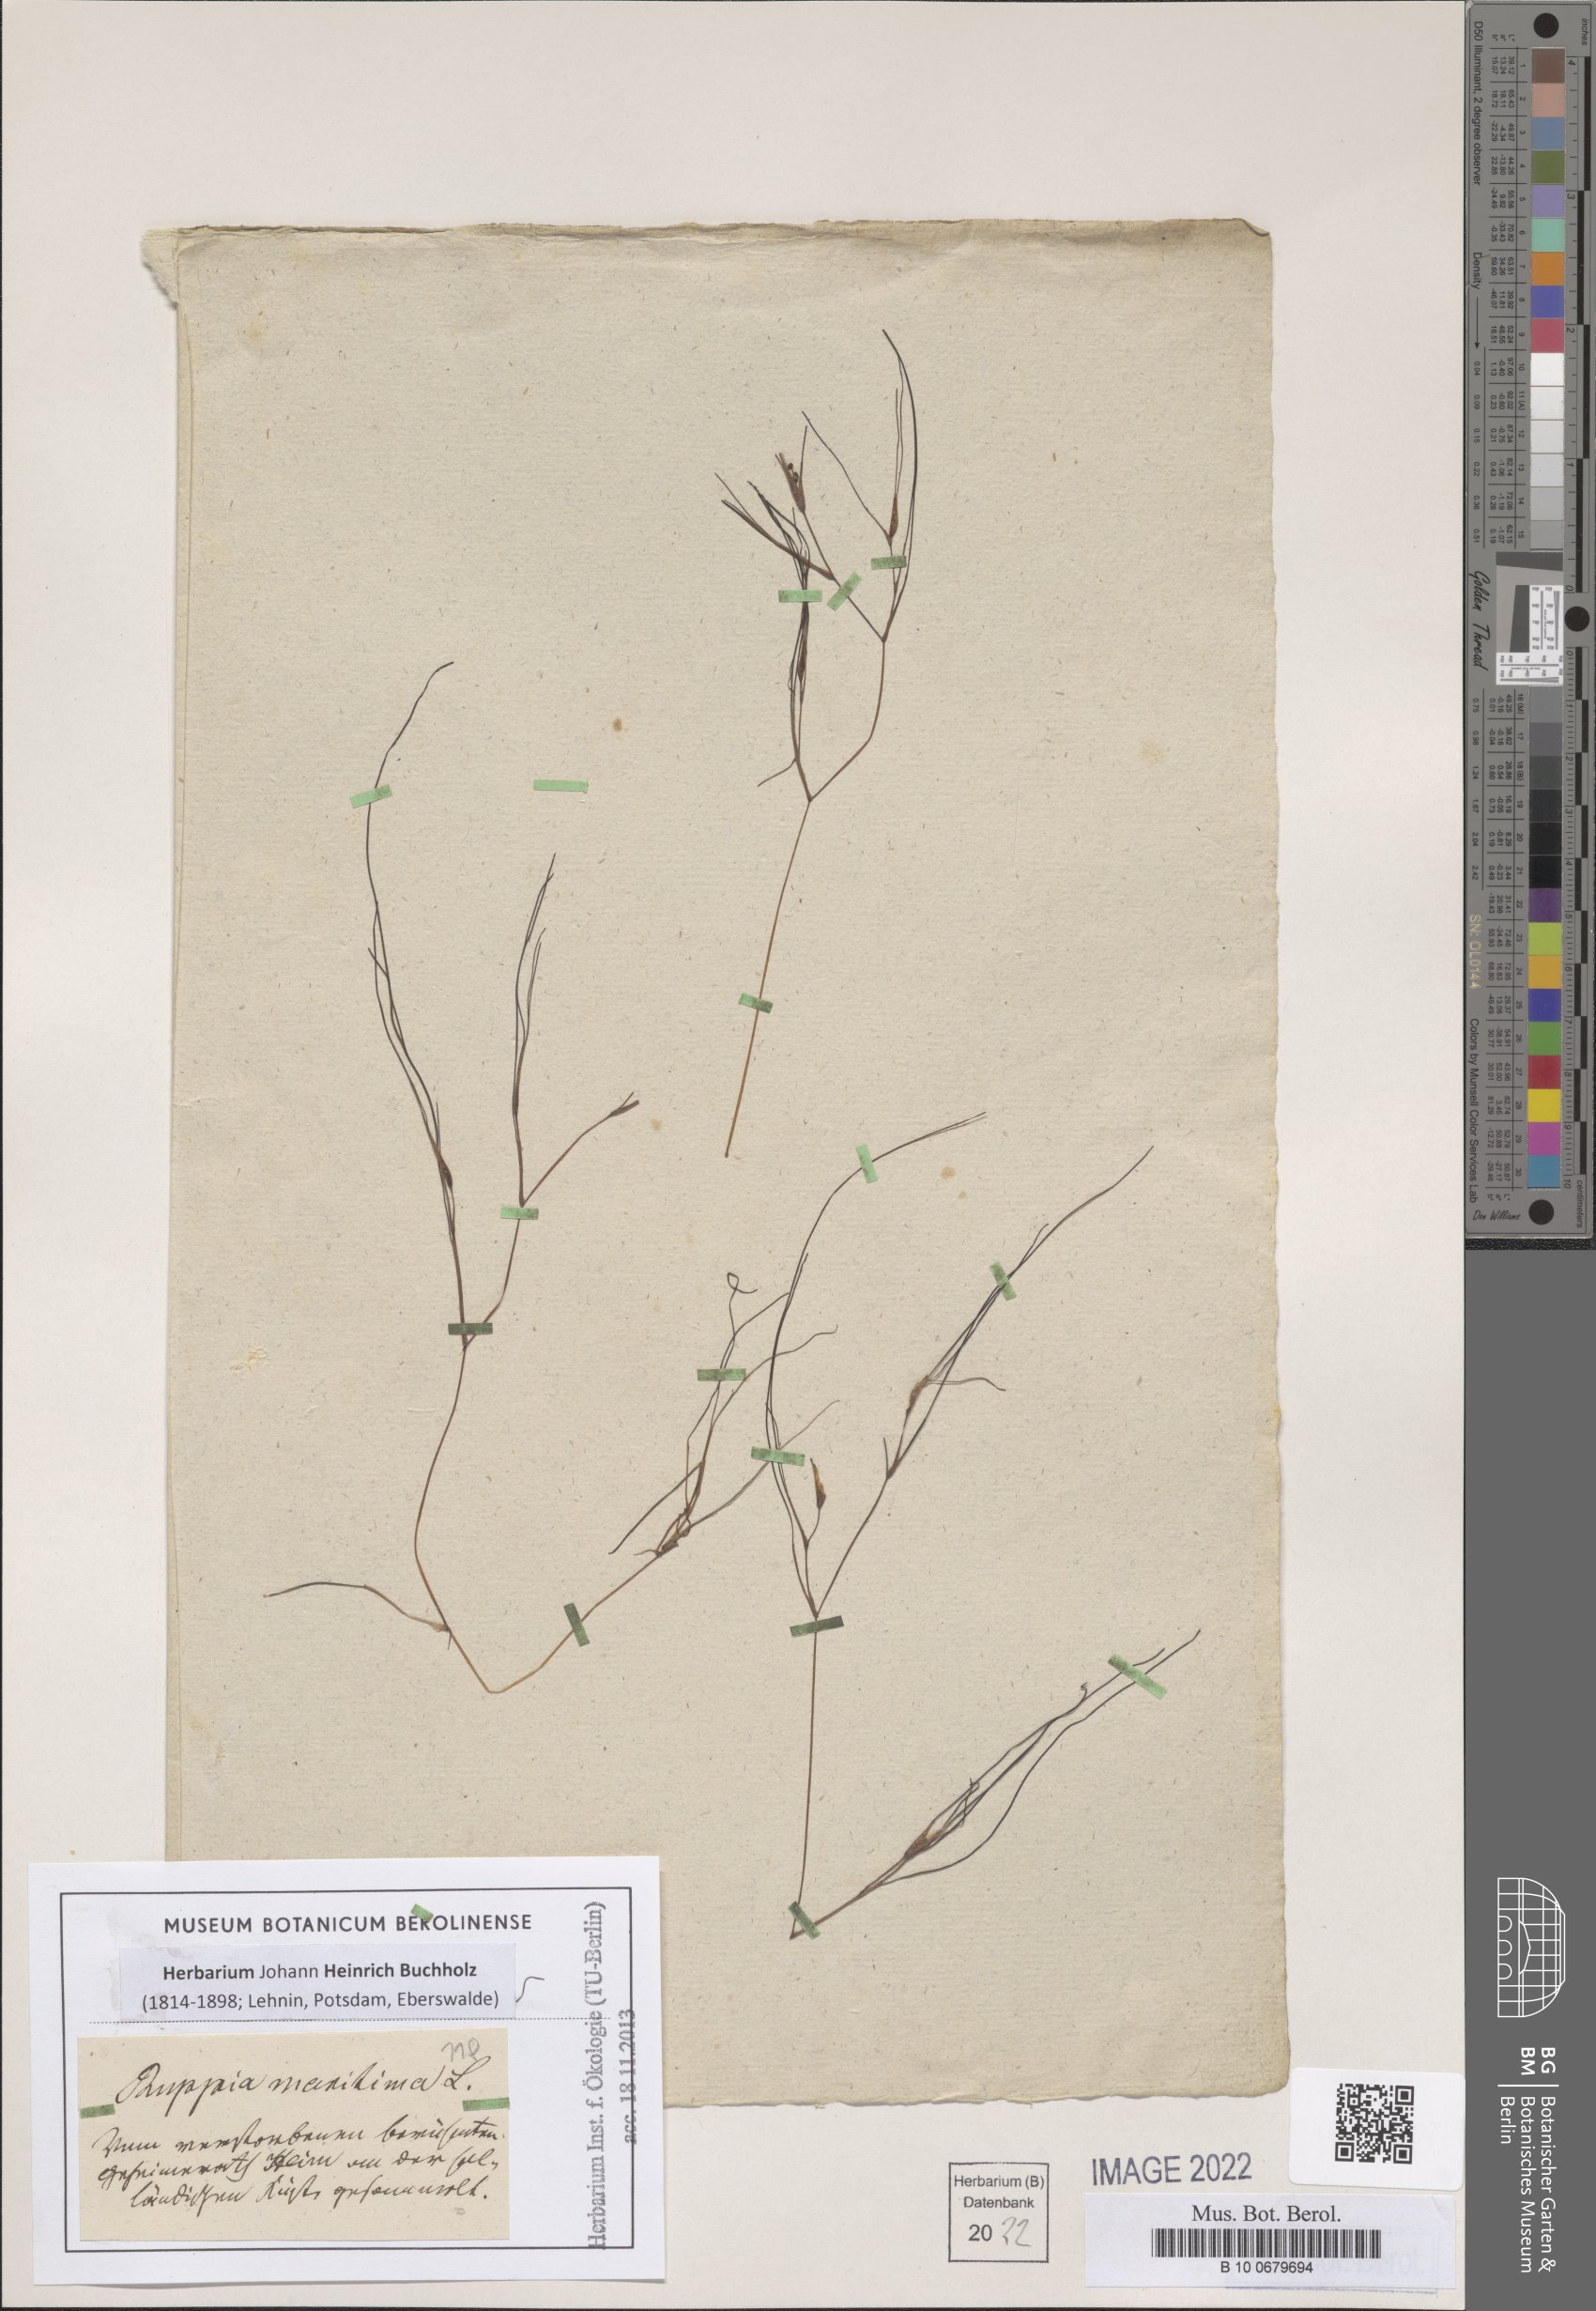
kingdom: Plantae
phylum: Tracheophyta
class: Liliopsida
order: Alismatales
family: Ruppiaceae
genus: Ruppia
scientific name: Ruppia maritima
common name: Beaked tasselweed
